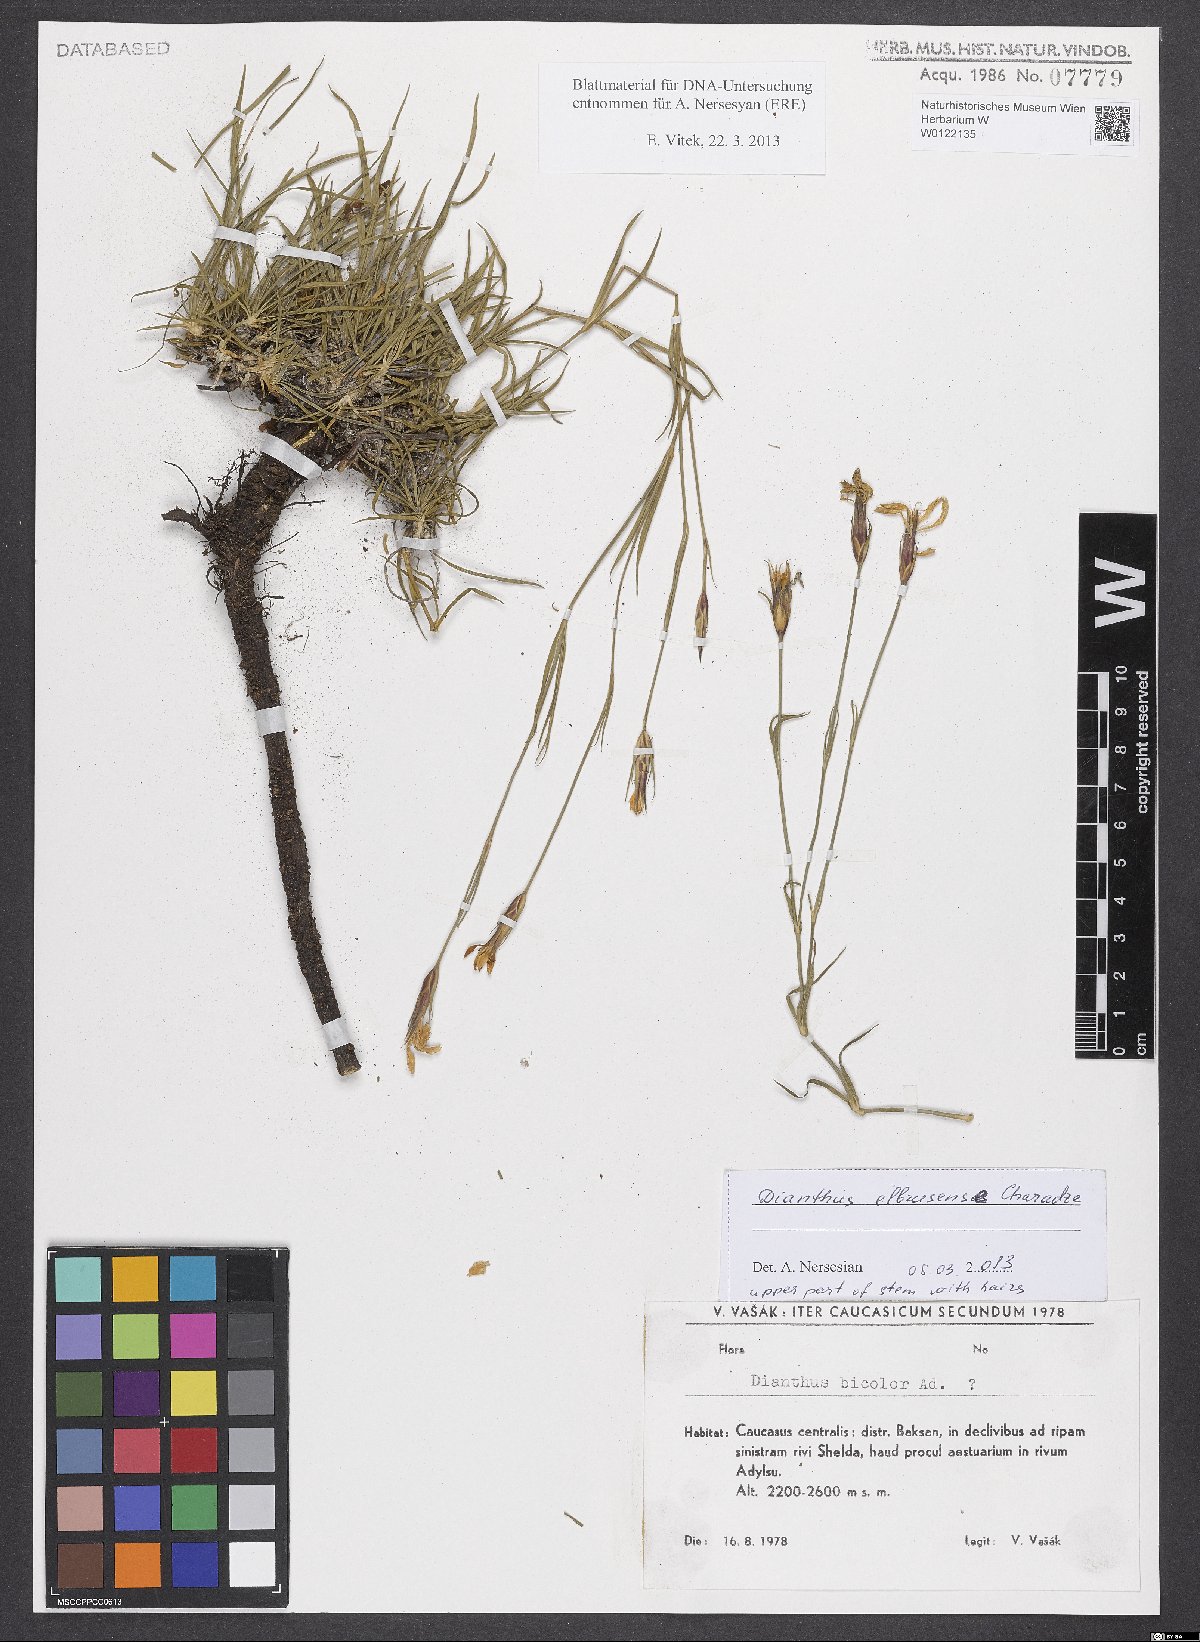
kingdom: Plantae
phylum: Tracheophyta
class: Magnoliopsida
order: Caryophyllales
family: Caryophyllaceae
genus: Dianthus
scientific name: Dianthus elbursensis
